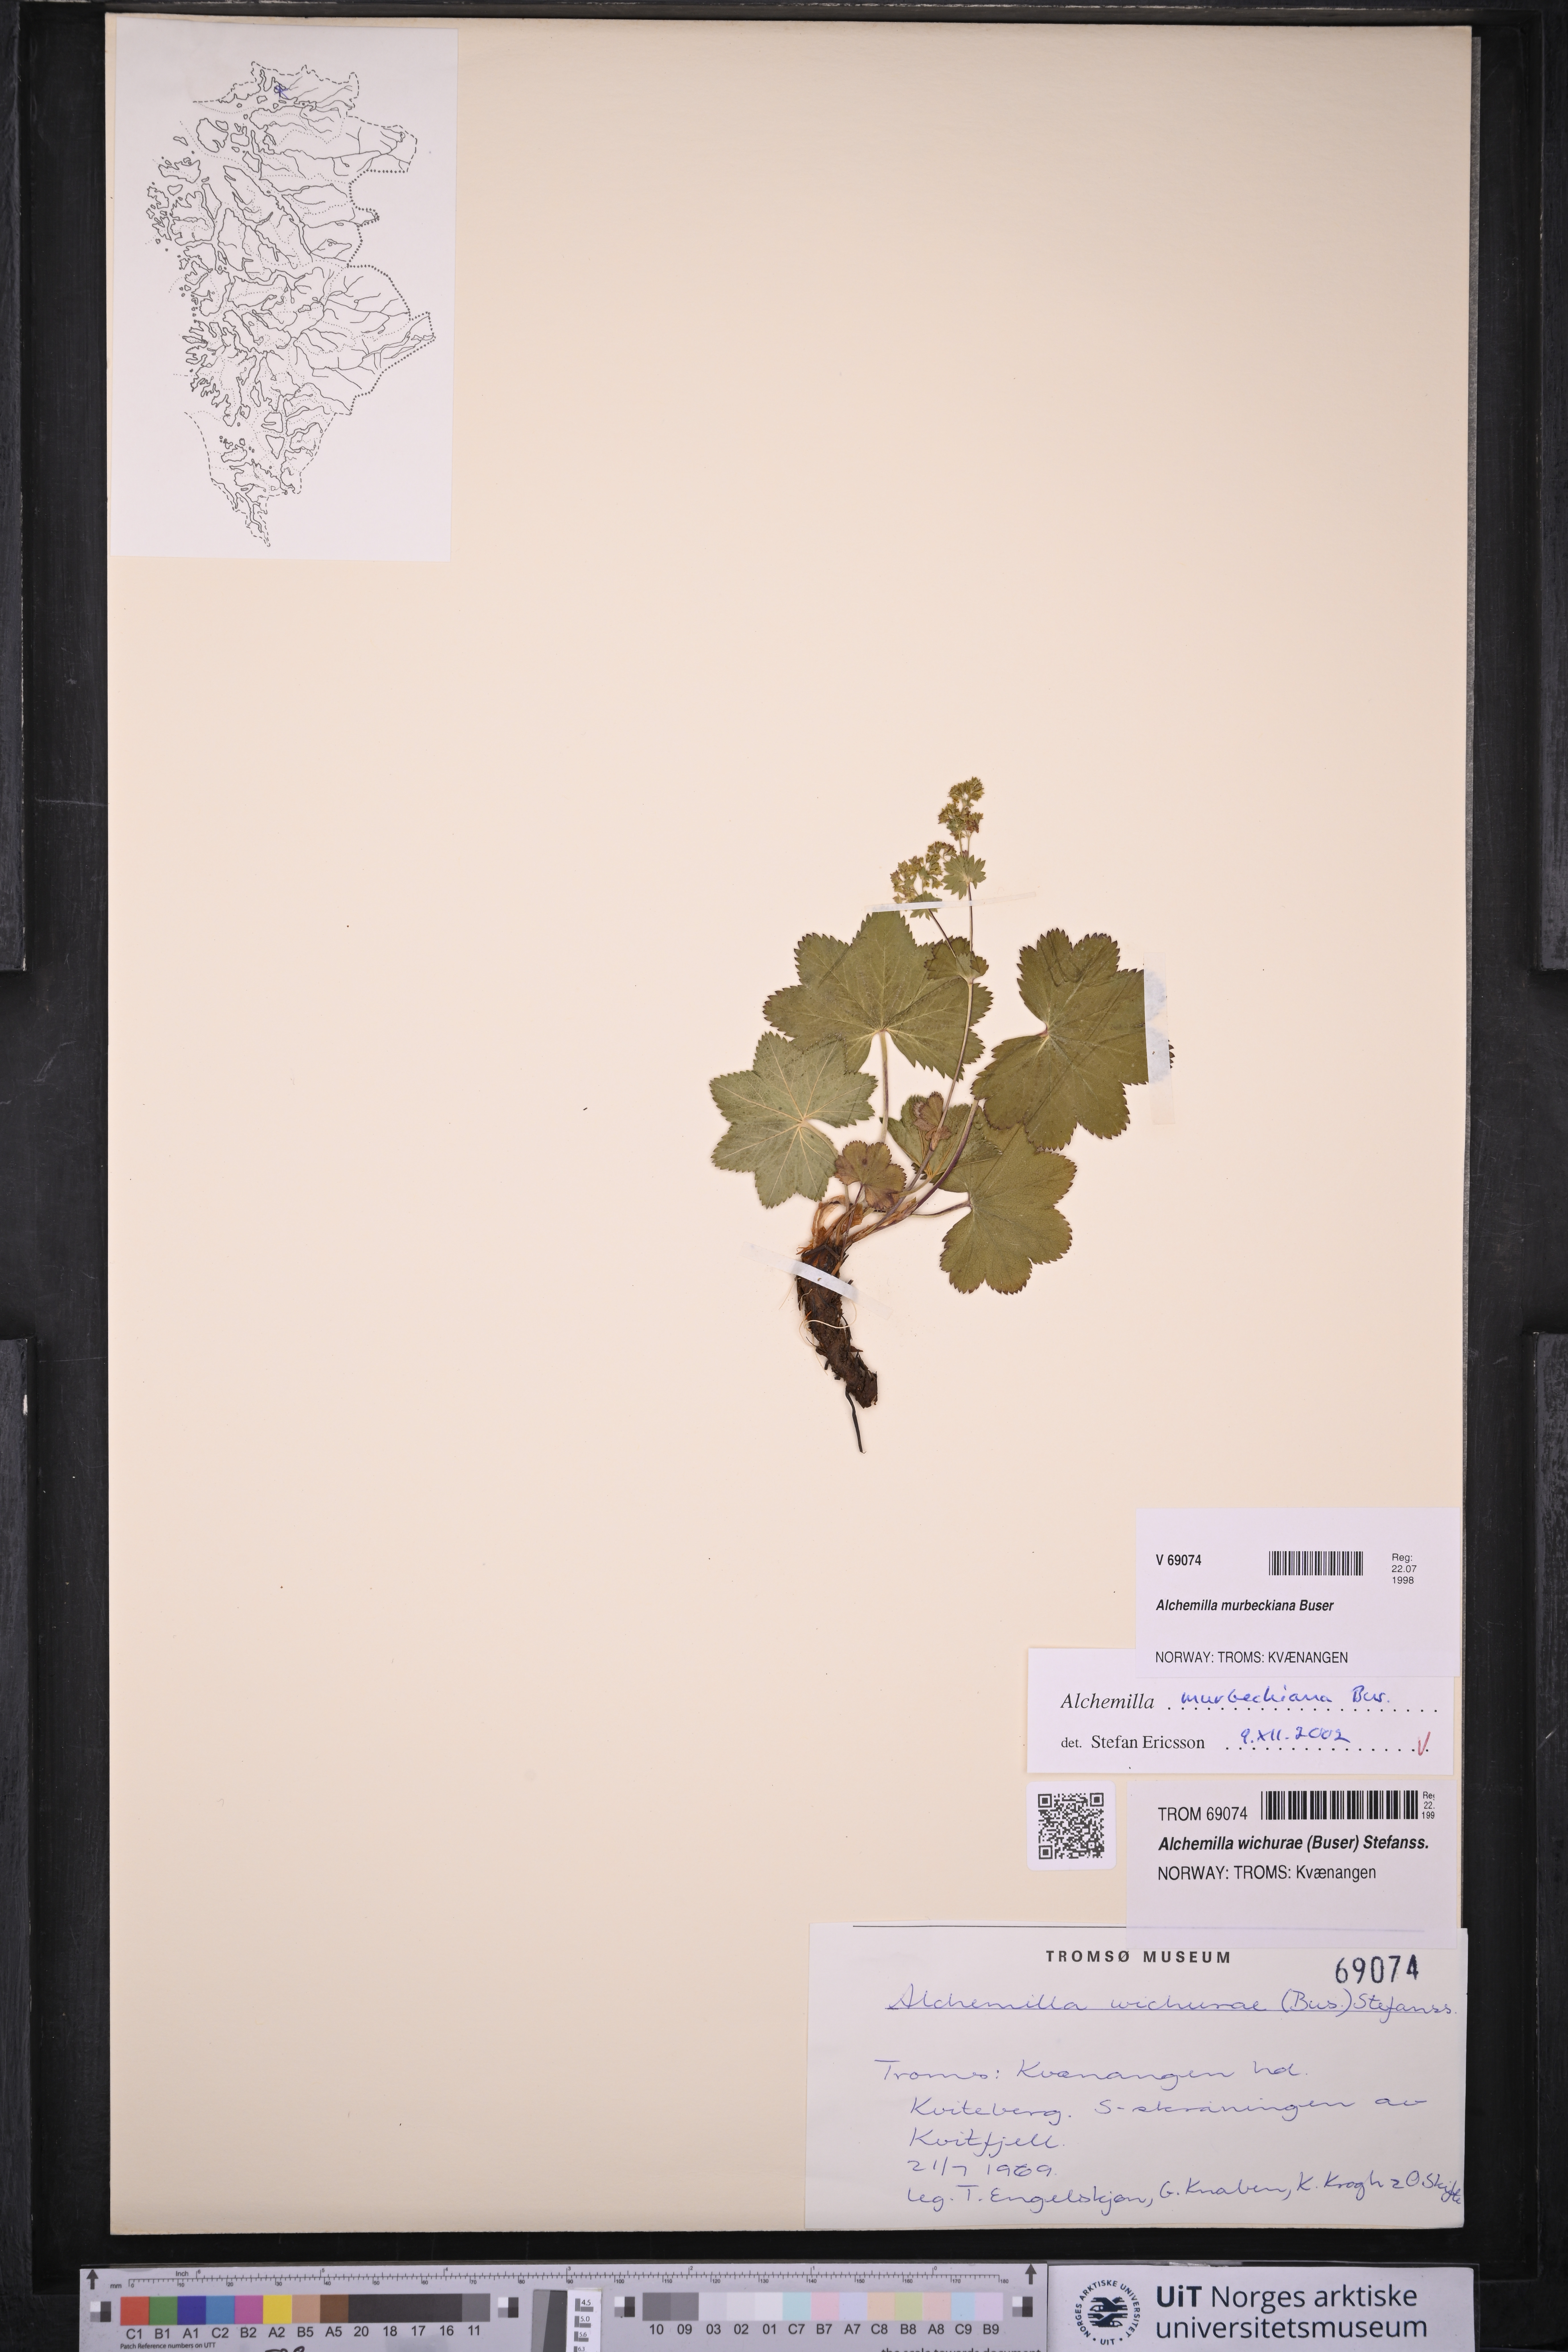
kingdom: Plantae
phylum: Tracheophyta
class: Magnoliopsida
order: Rosales
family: Rosaceae
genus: Alchemilla
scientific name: Alchemilla murbeckiana
